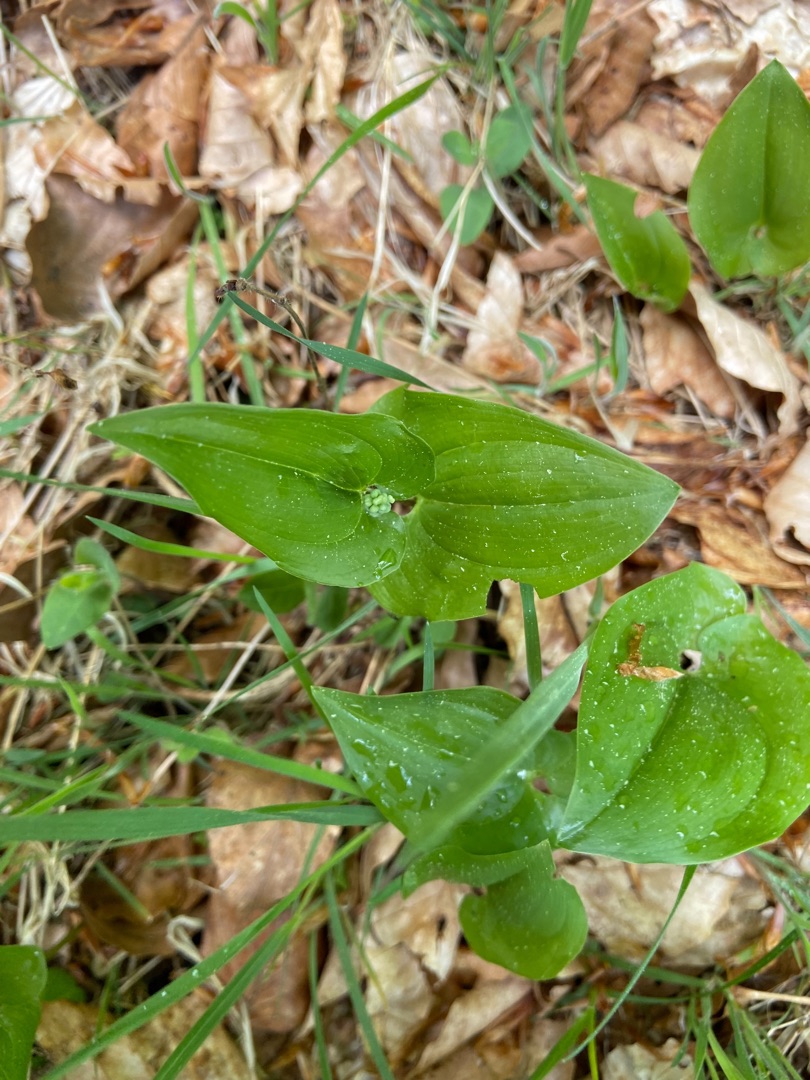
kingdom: Plantae
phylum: Tracheophyta
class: Liliopsida
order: Asparagales
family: Asparagaceae
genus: Maianthemum
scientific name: Maianthemum bifolium
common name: Majblomst
